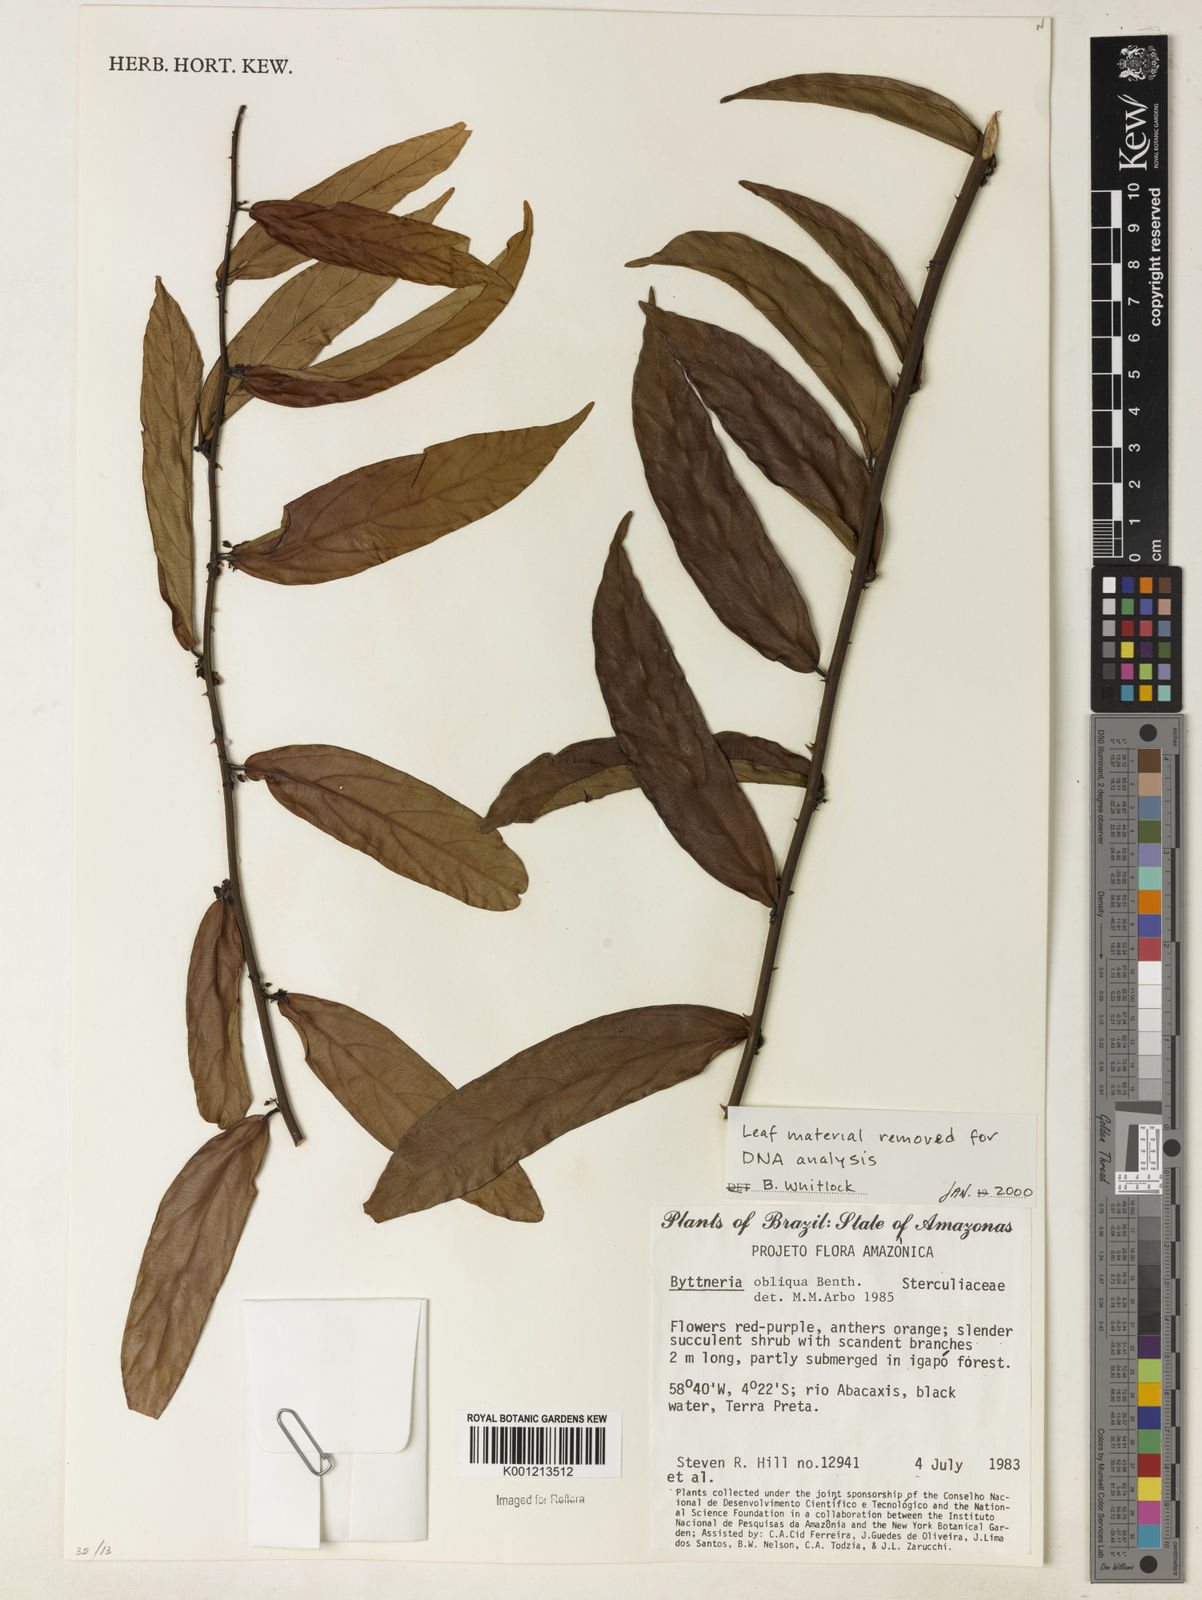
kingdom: Plantae
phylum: Tracheophyta
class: Magnoliopsida
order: Malvales
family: Malvaceae
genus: Byttneria
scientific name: Byttneria obliqua
